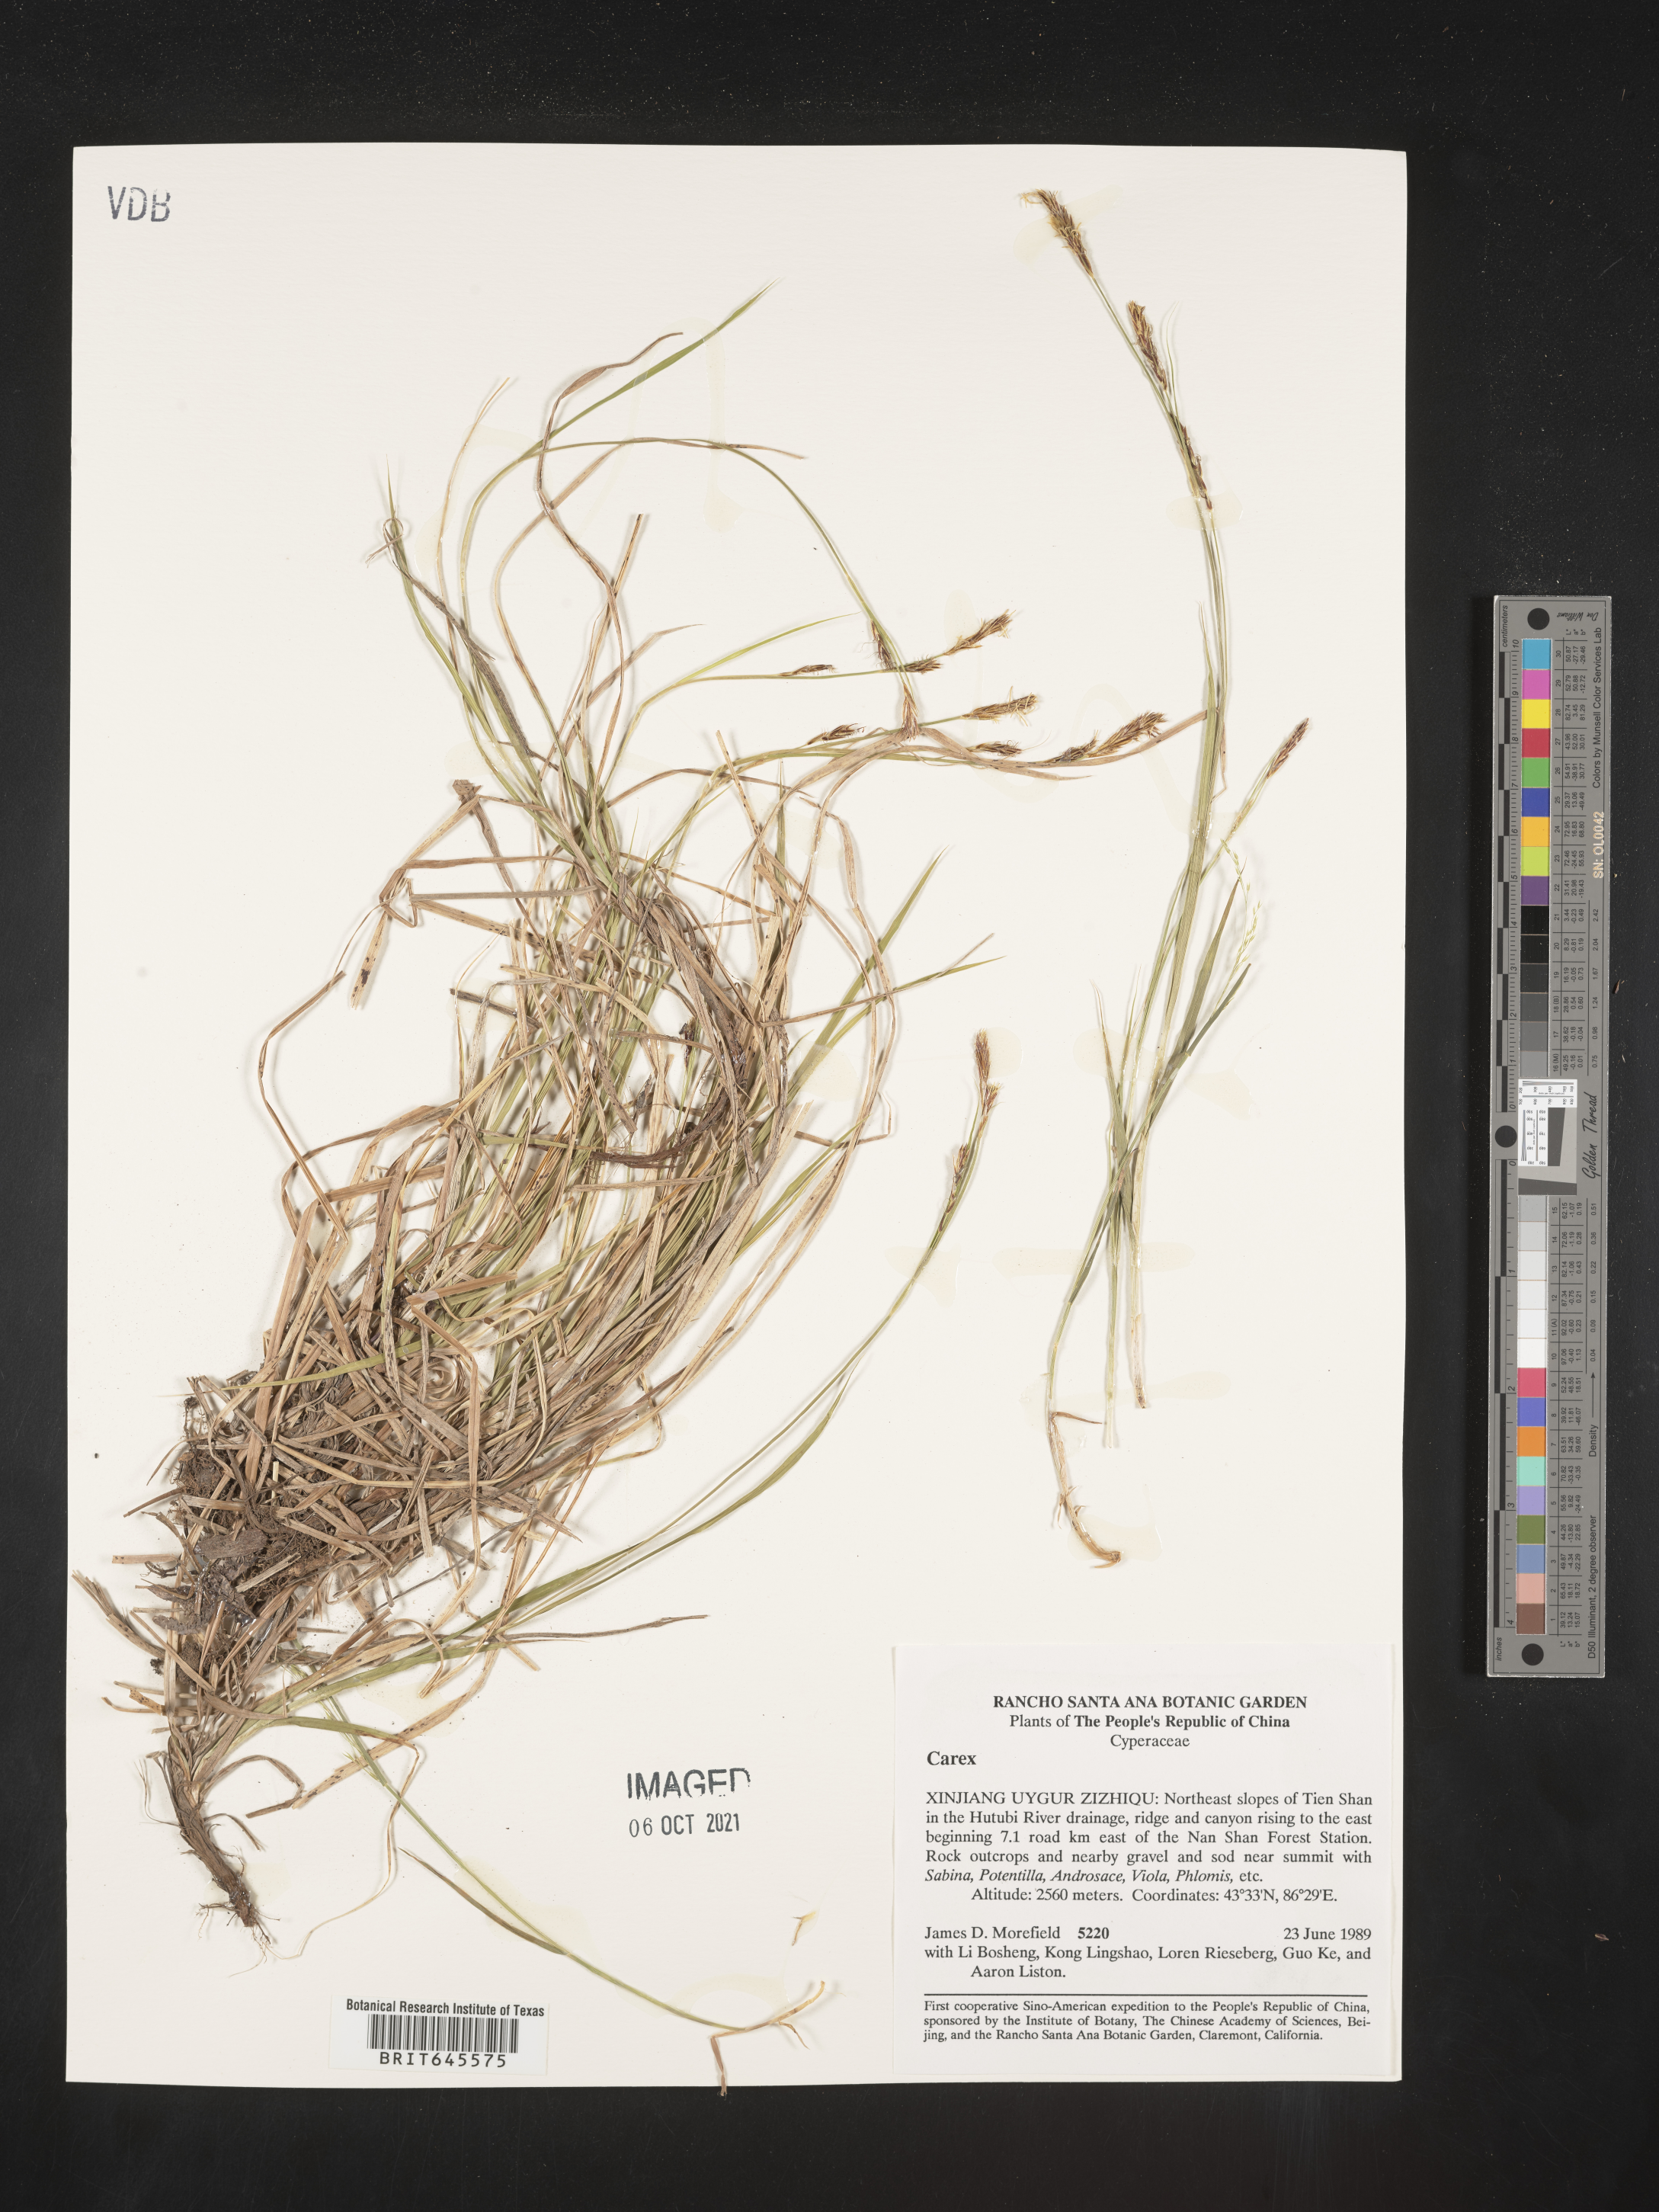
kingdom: Plantae
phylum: Tracheophyta
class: Liliopsida
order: Poales
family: Cyperaceae
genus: Carex
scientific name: Carex
